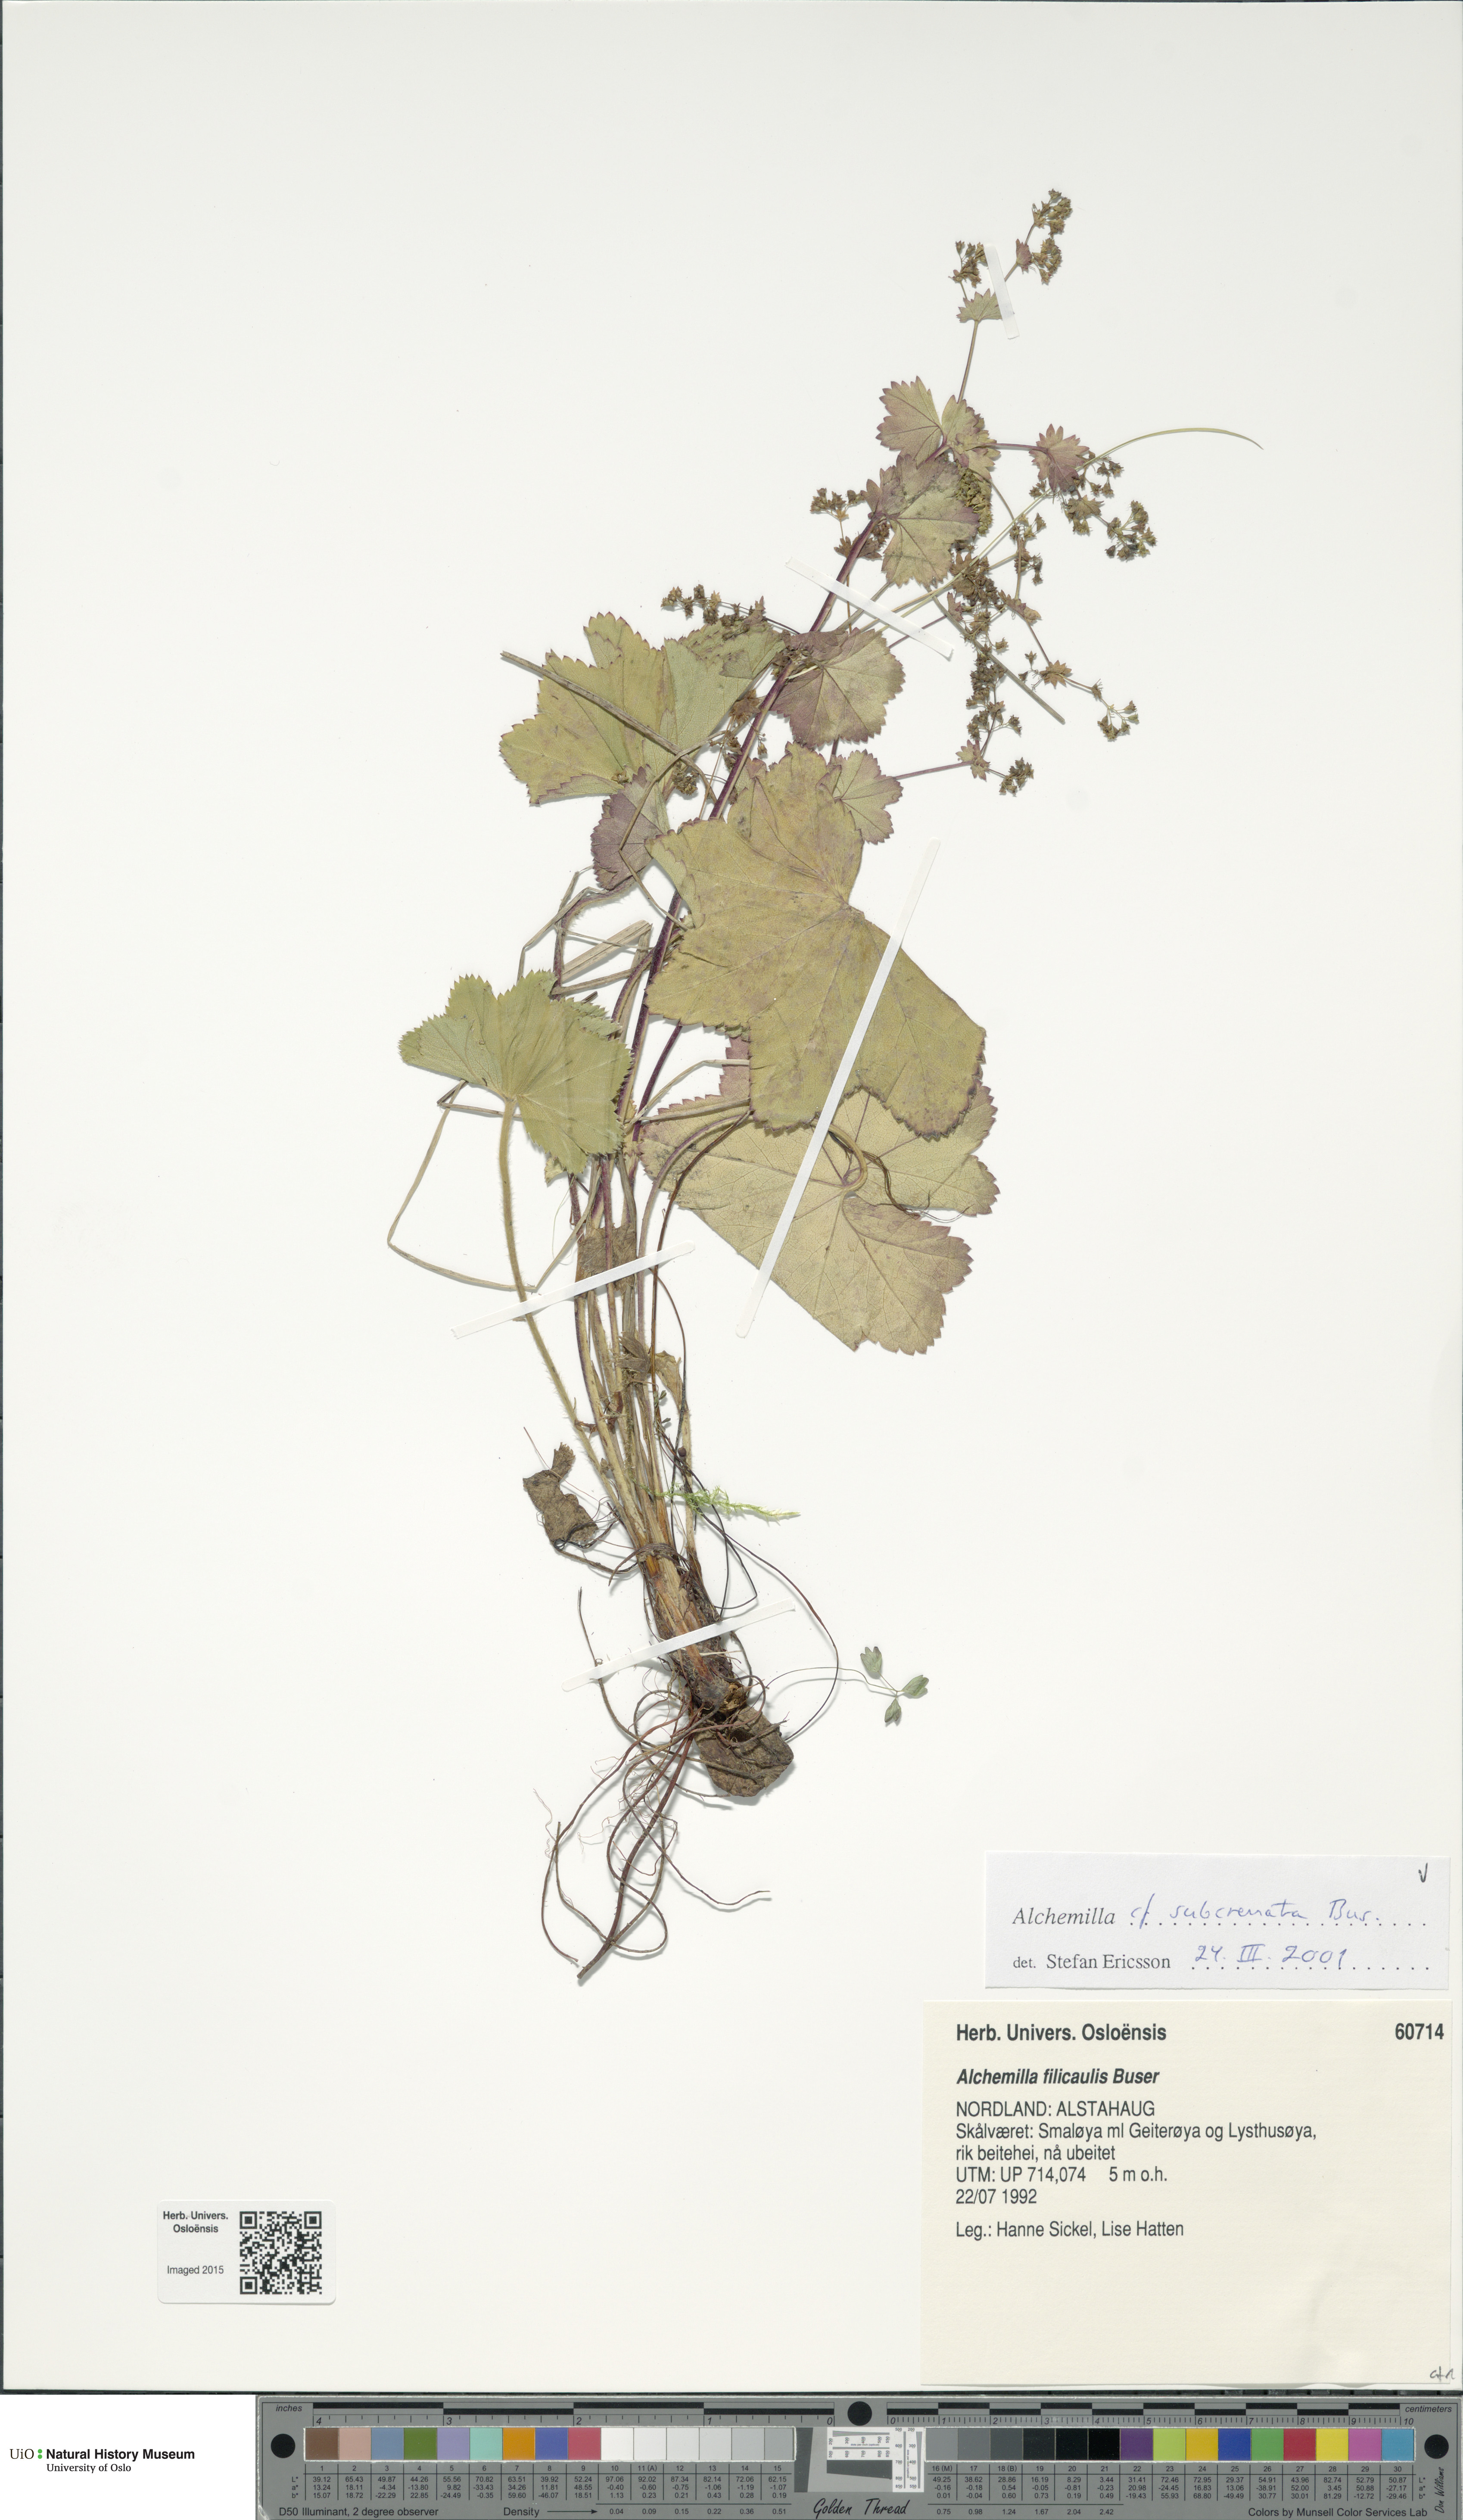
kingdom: Plantae
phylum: Tracheophyta
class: Magnoliopsida
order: Rosales
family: Rosaceae
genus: Alchemilla
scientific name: Alchemilla subcrenata
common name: Broadtooth lady's mantle
